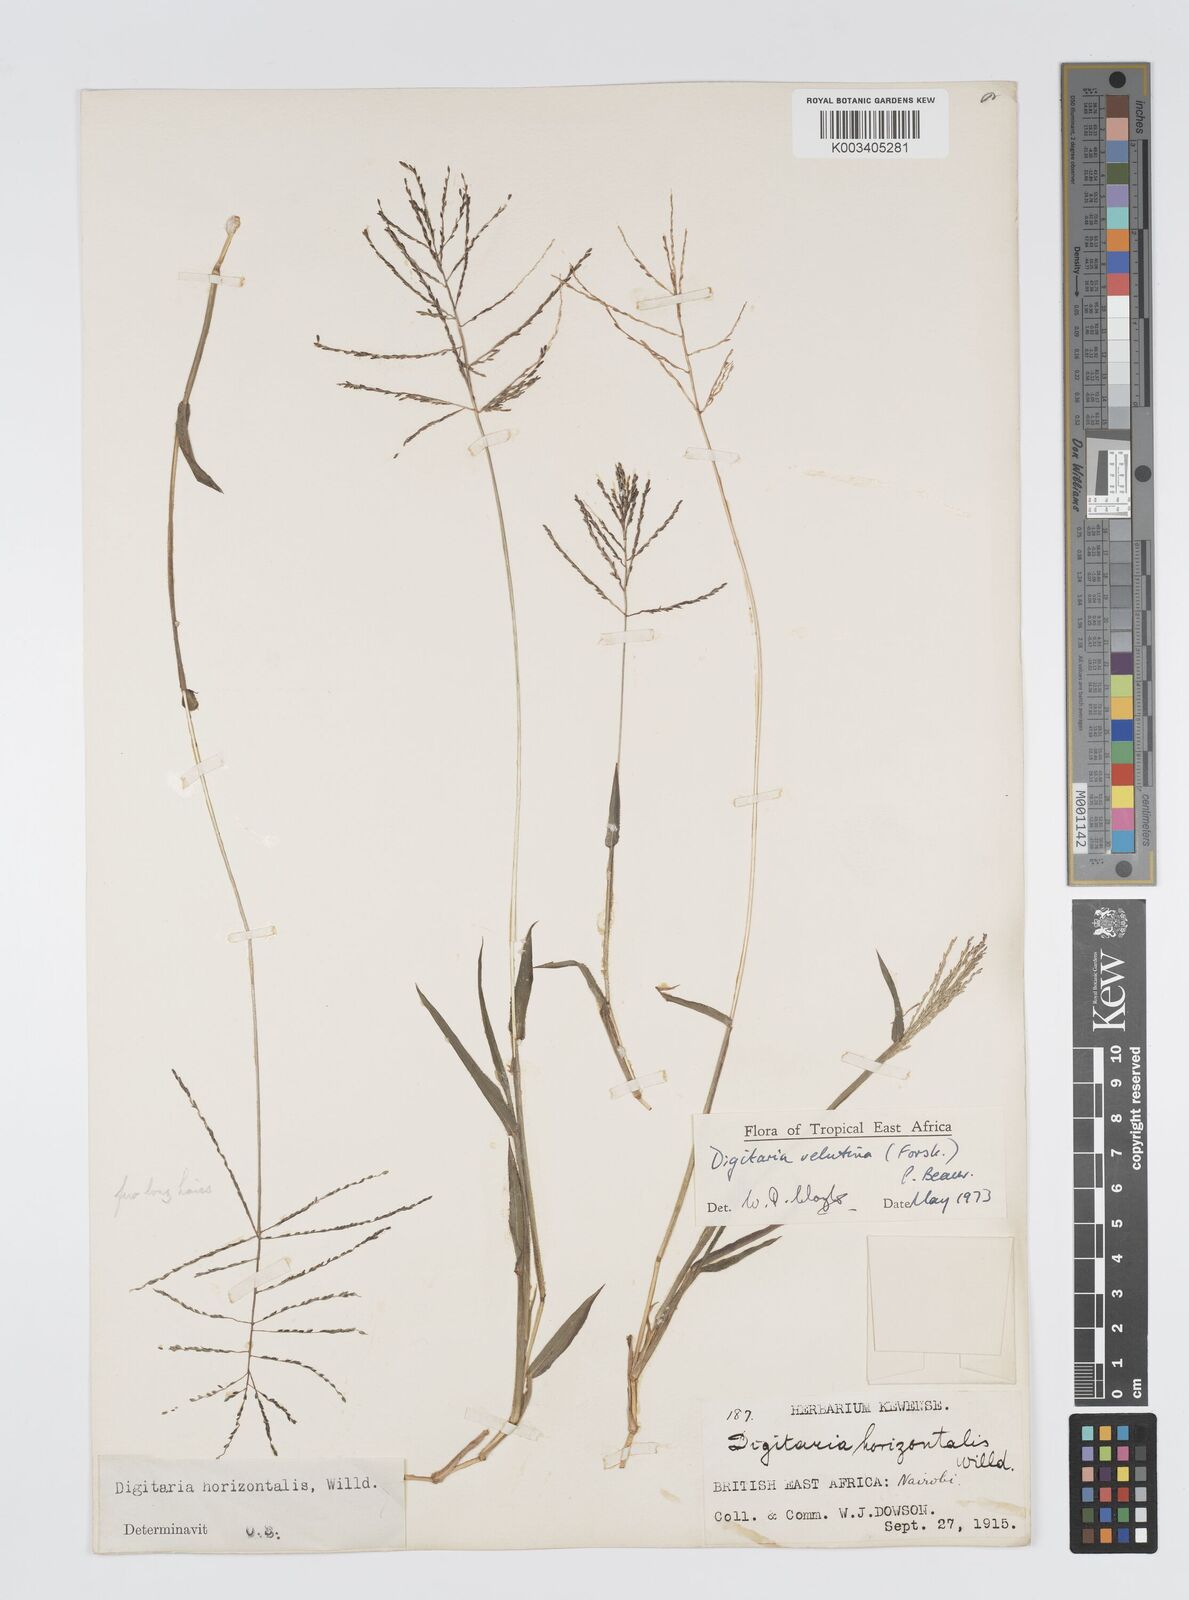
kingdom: Plantae
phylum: Tracheophyta
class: Liliopsida
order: Poales
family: Poaceae
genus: Digitaria
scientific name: Digitaria velutina
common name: Long-plume finger grass
